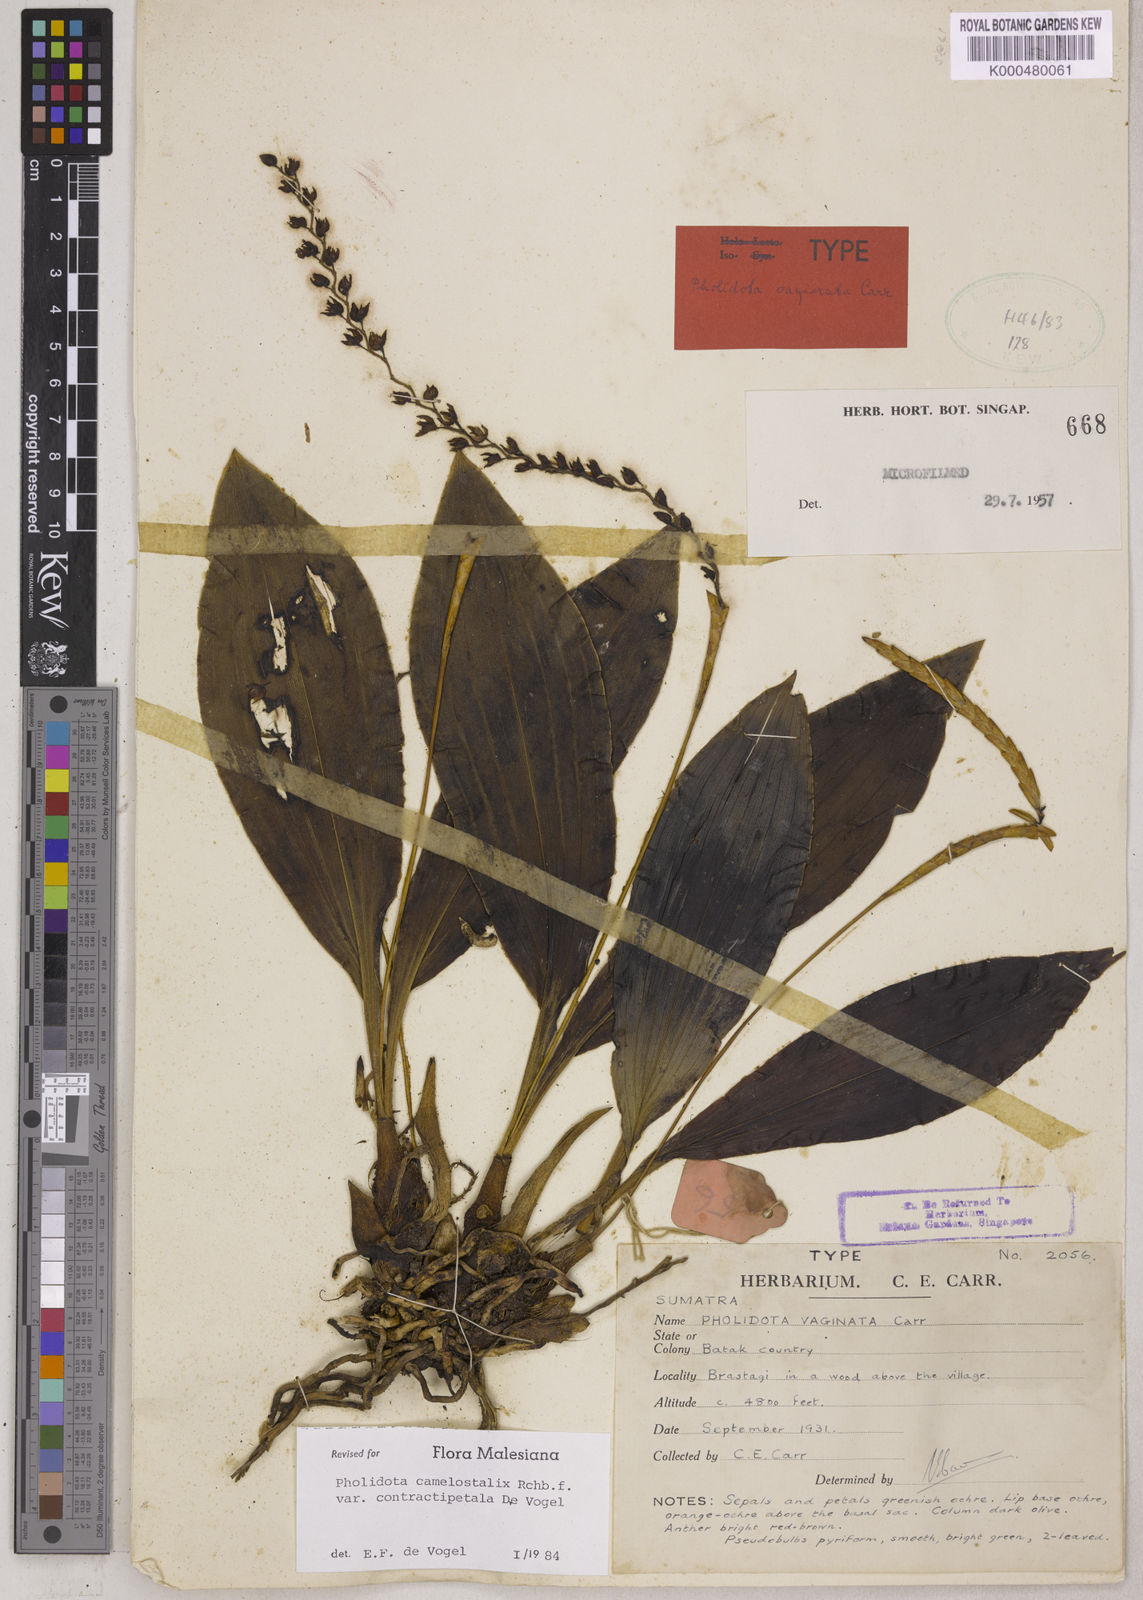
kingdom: Plantae
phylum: Tracheophyta
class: Liliopsida
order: Asparagales
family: Orchidaceae
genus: Coelogyne
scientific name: Coelogyne camelostalix
